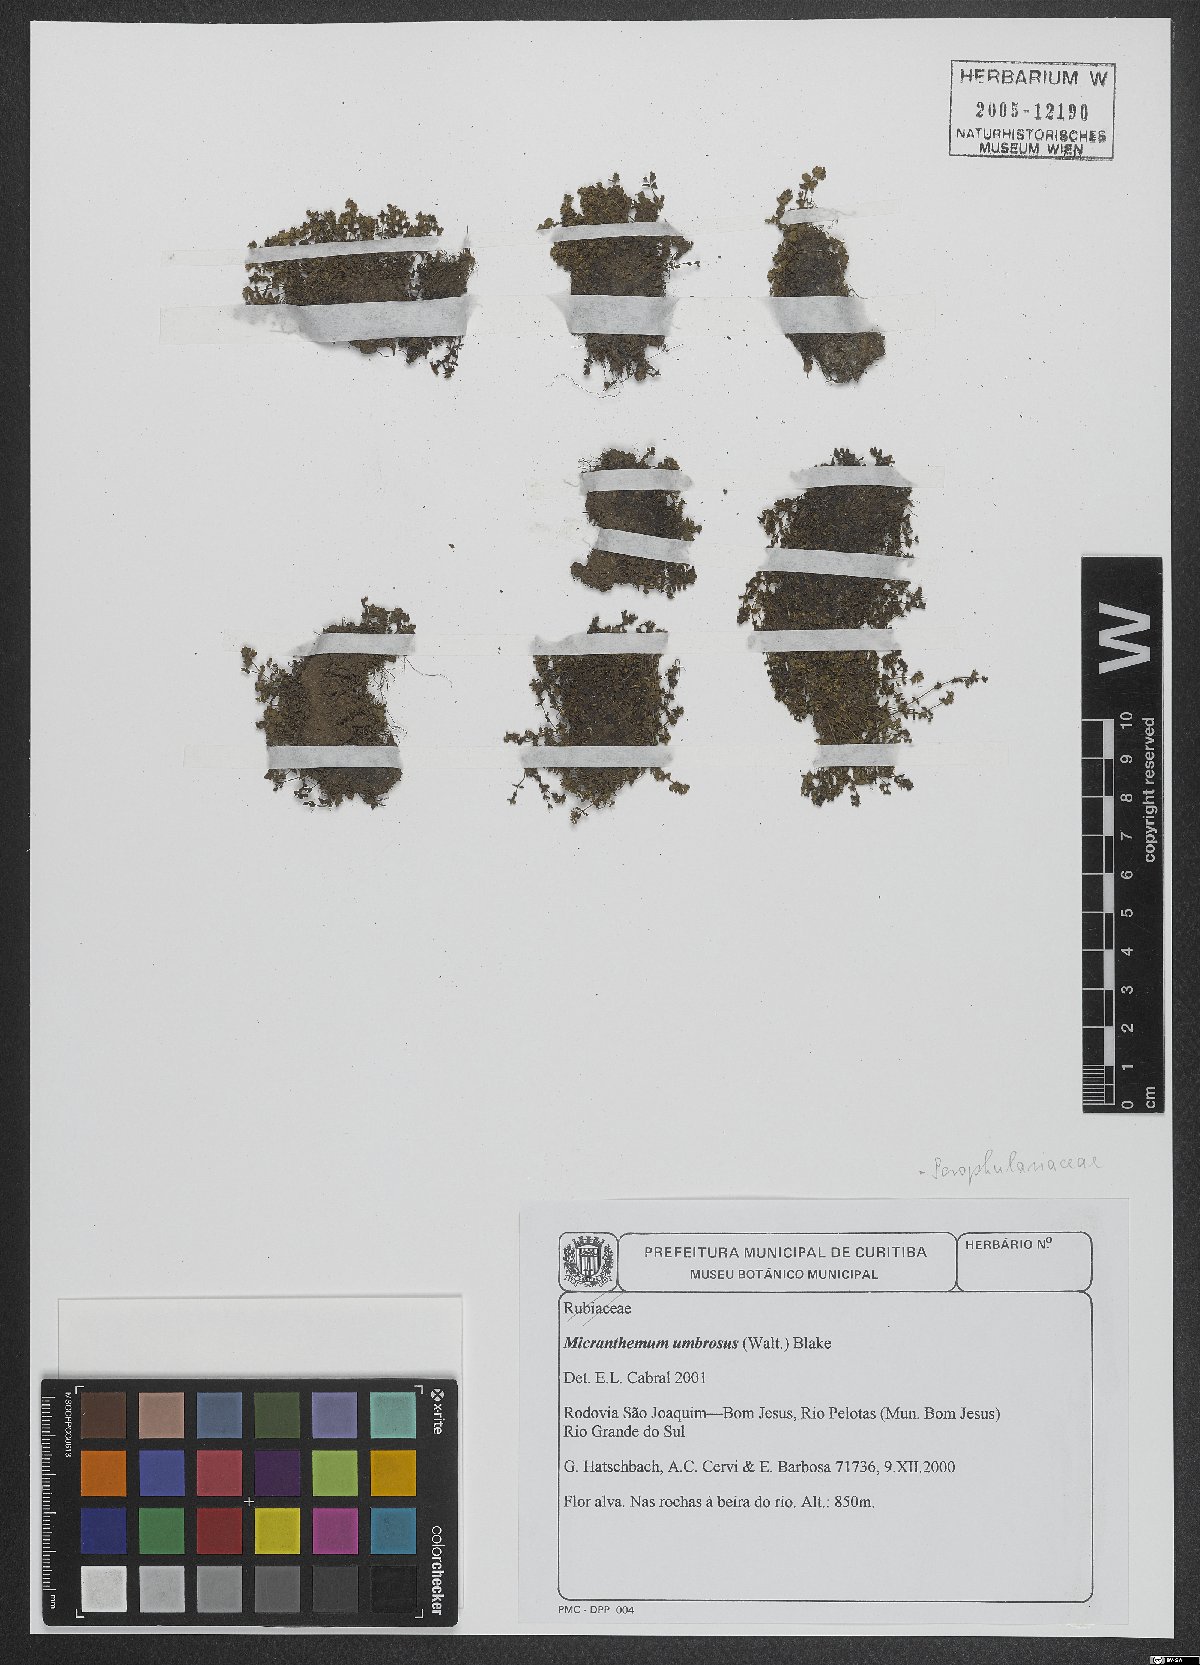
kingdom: Plantae
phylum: Tracheophyta
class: Magnoliopsida
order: Lamiales
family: Linderniaceae
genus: Micranthemum
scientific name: Micranthemum umbrosum
